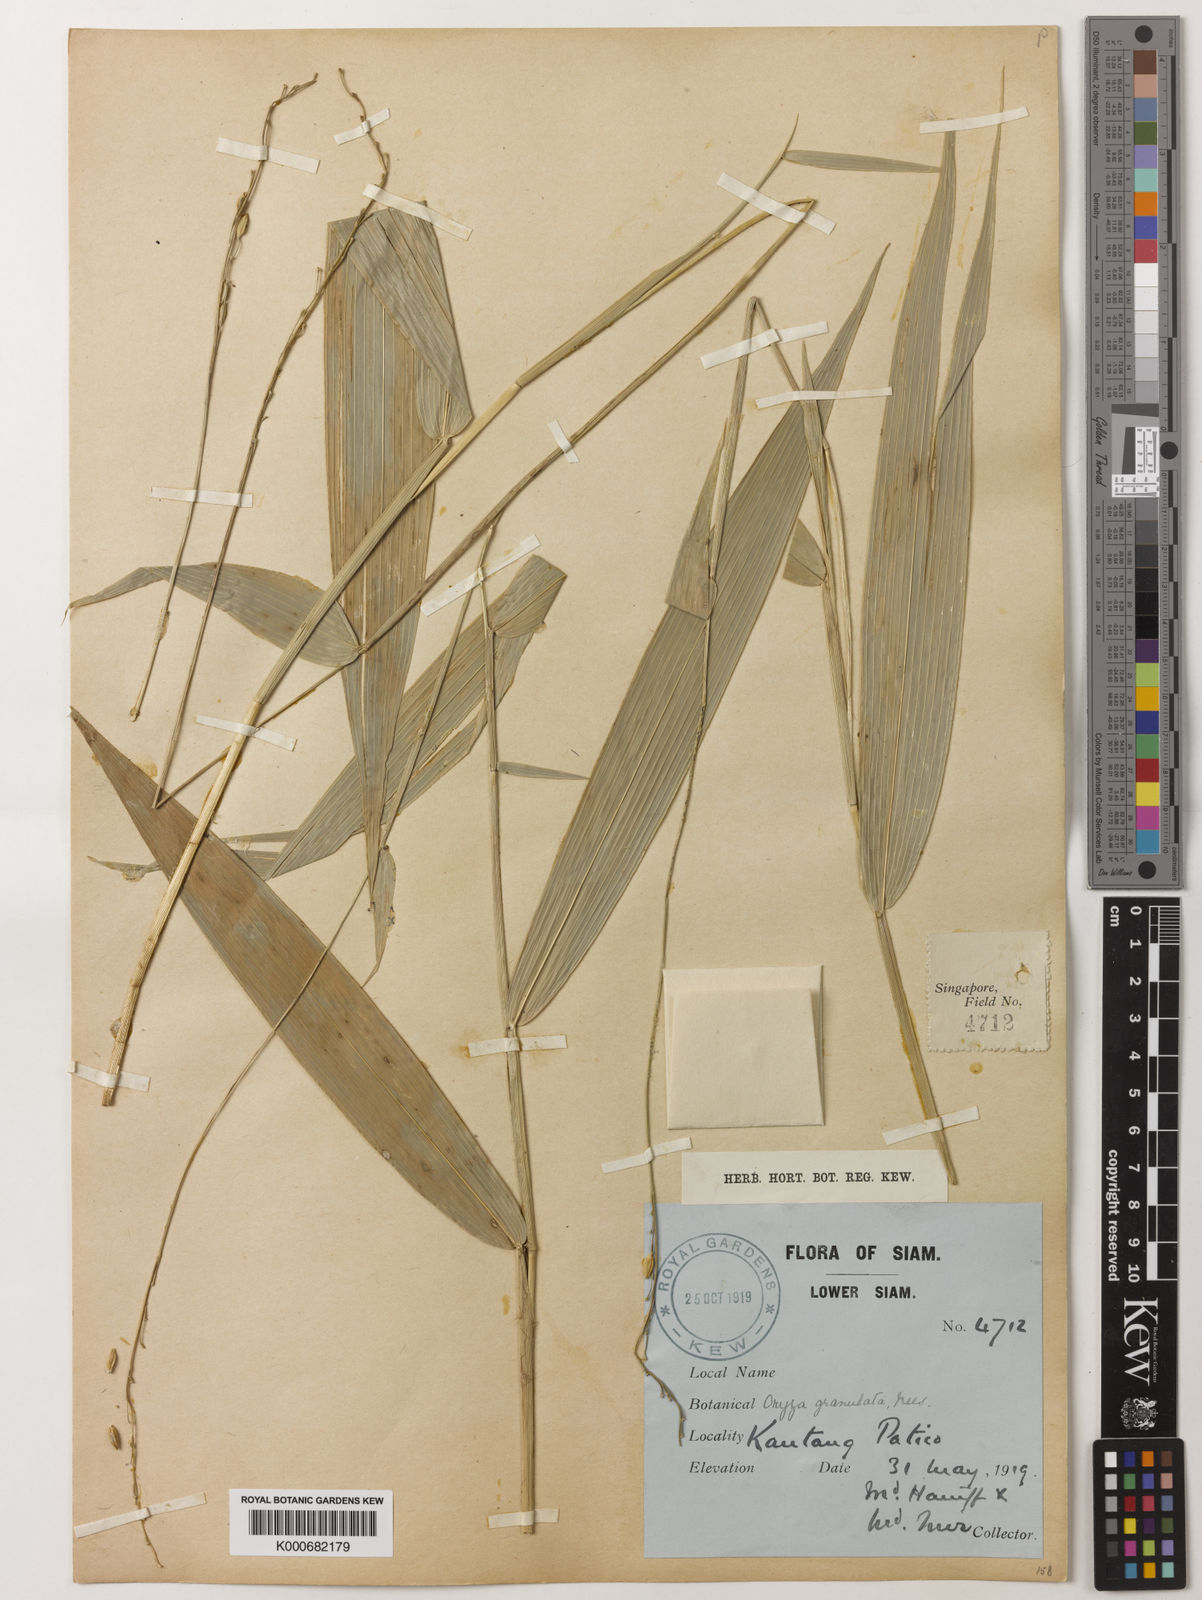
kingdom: Plantae
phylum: Tracheophyta
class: Liliopsida
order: Poales
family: Poaceae
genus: Oryza
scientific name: Oryza meyeriana
